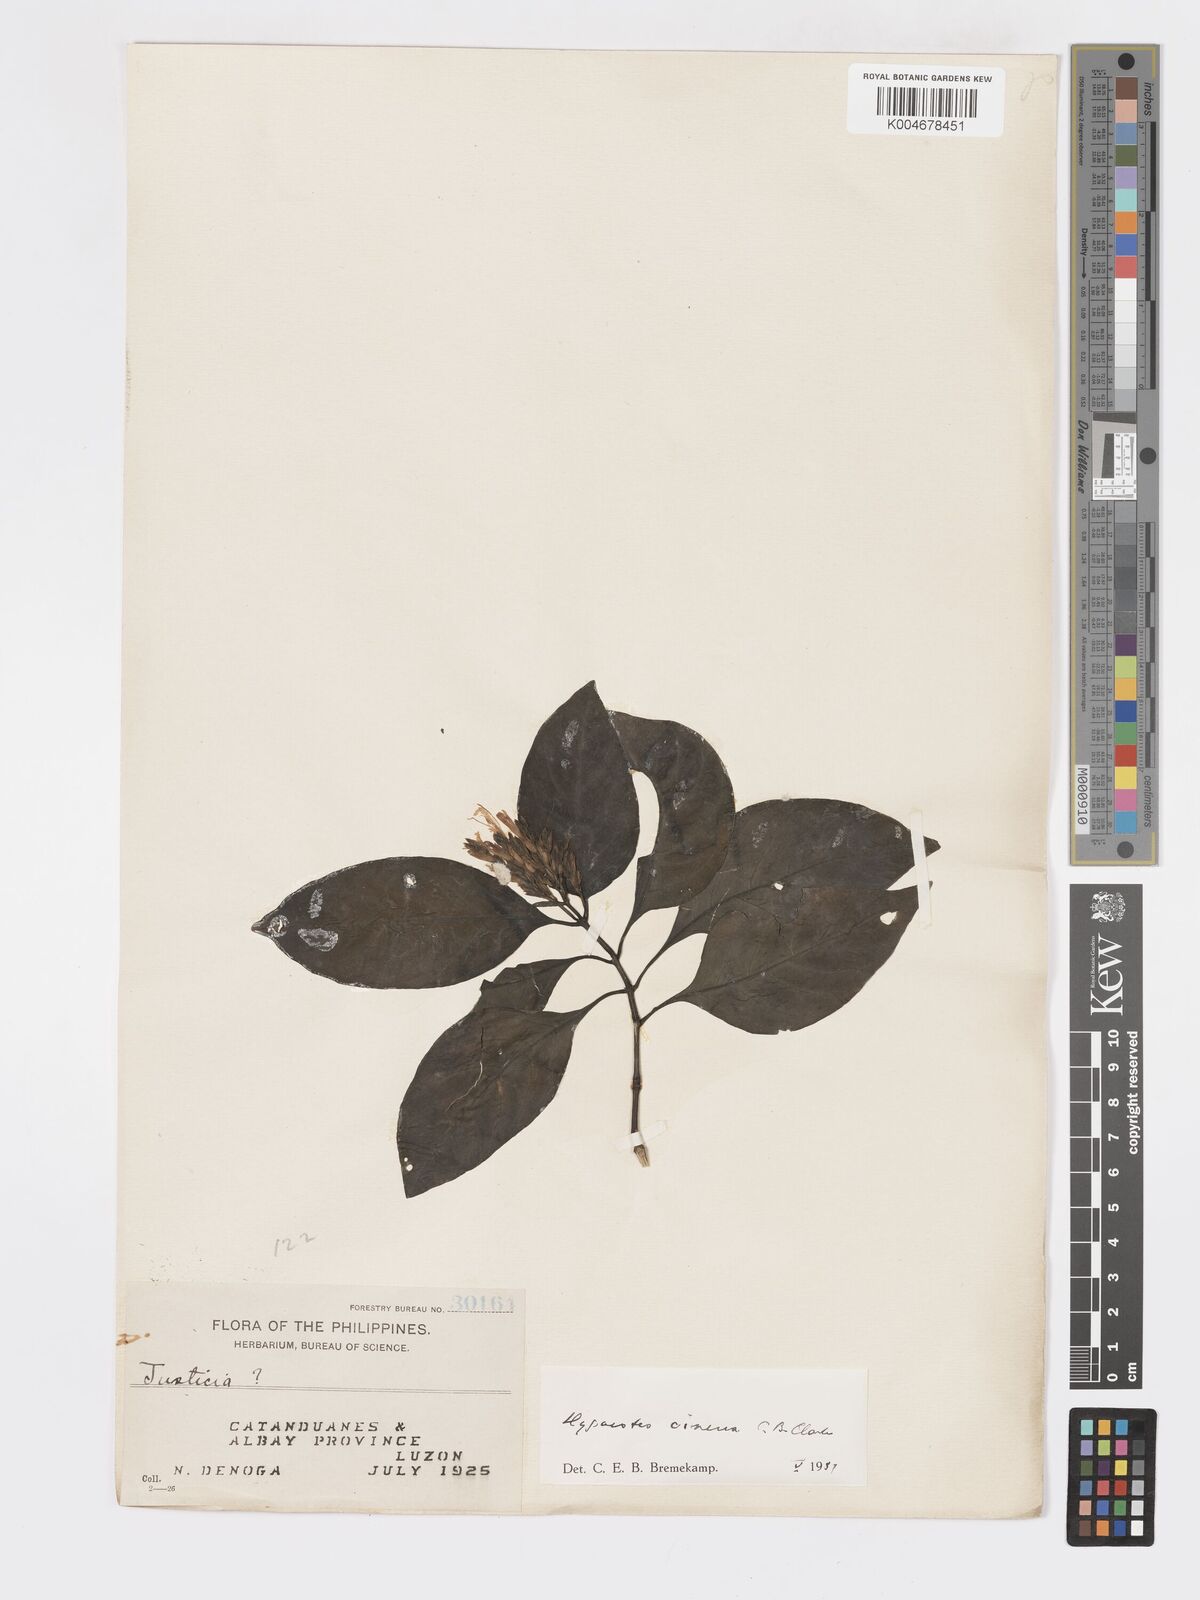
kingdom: Plantae
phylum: Tracheophyta
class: Magnoliopsida
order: Lamiales
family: Acanthaceae
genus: Hypoestes
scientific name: Hypoestes
